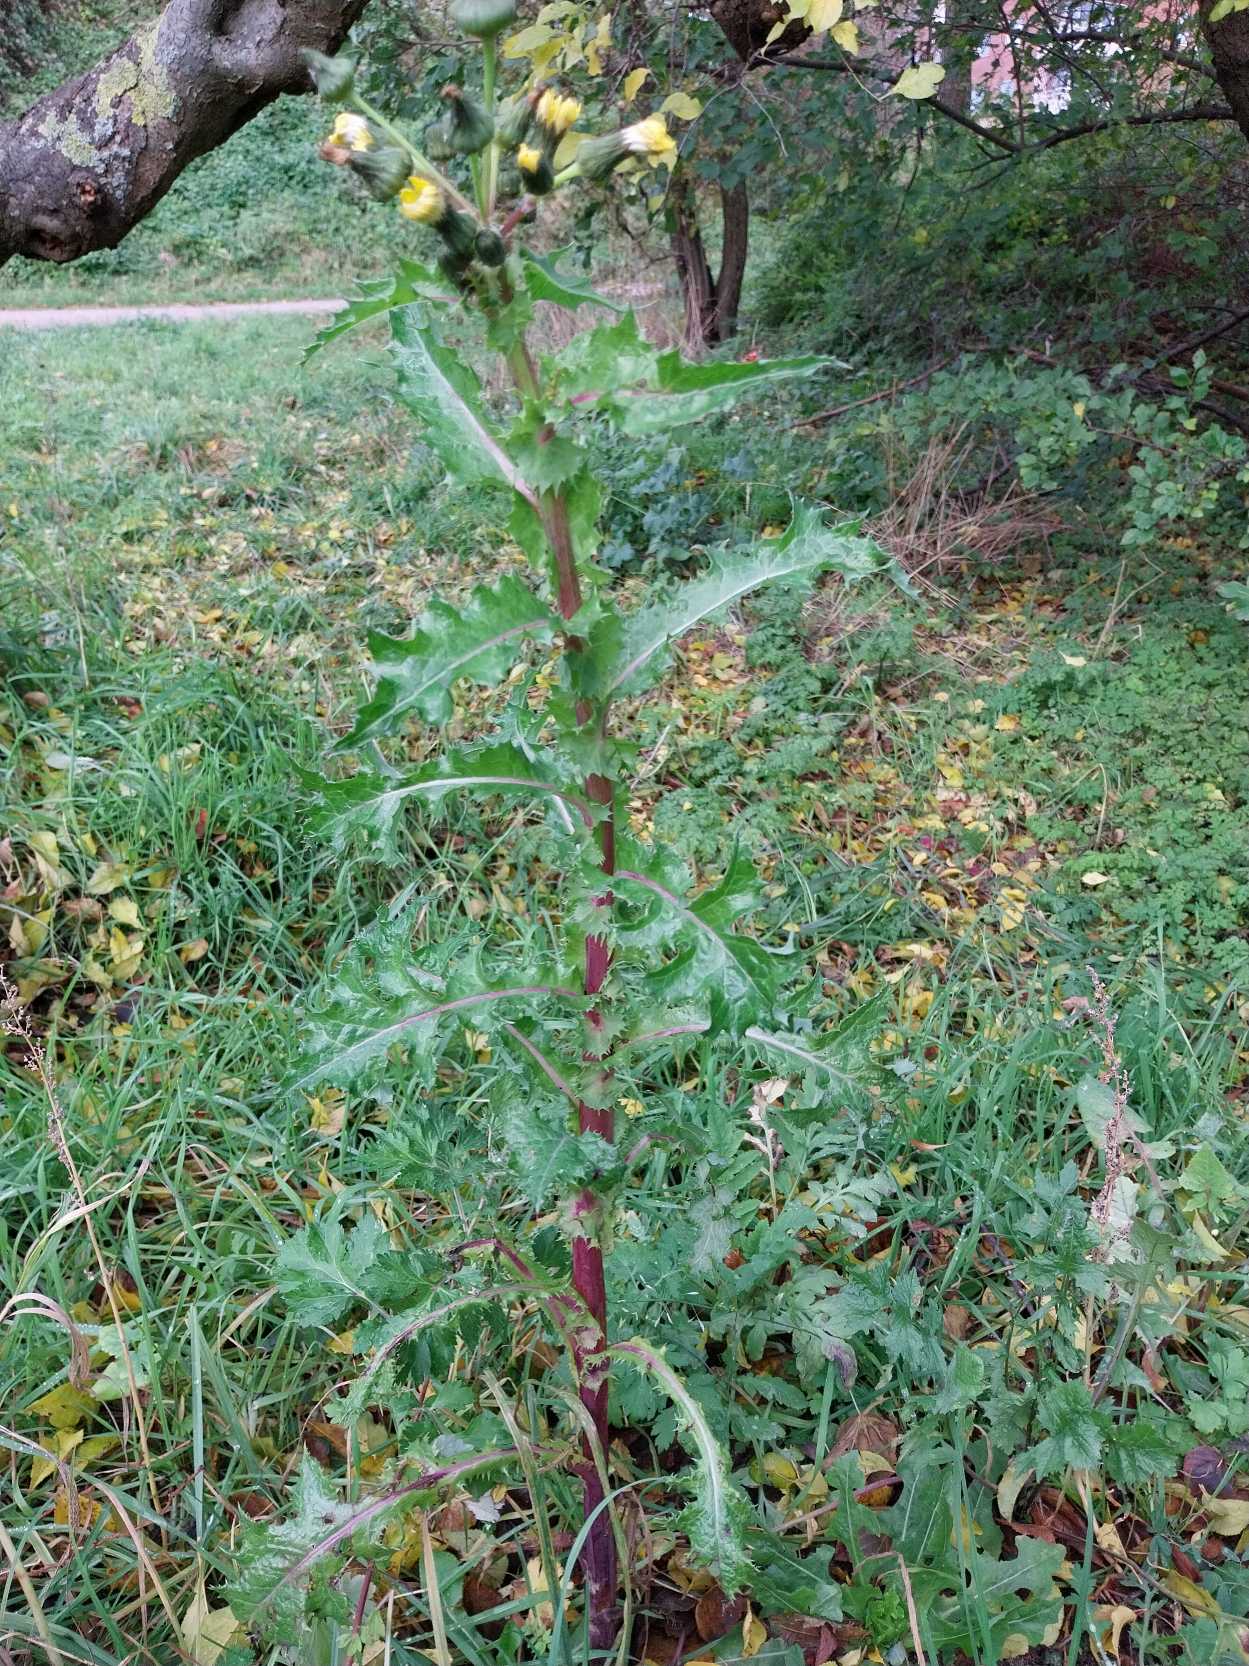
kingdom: Plantae
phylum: Tracheophyta
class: Magnoliopsida
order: Asterales
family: Asteraceae
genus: Sonchus
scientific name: Sonchus asper
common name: Ru svinemælk
